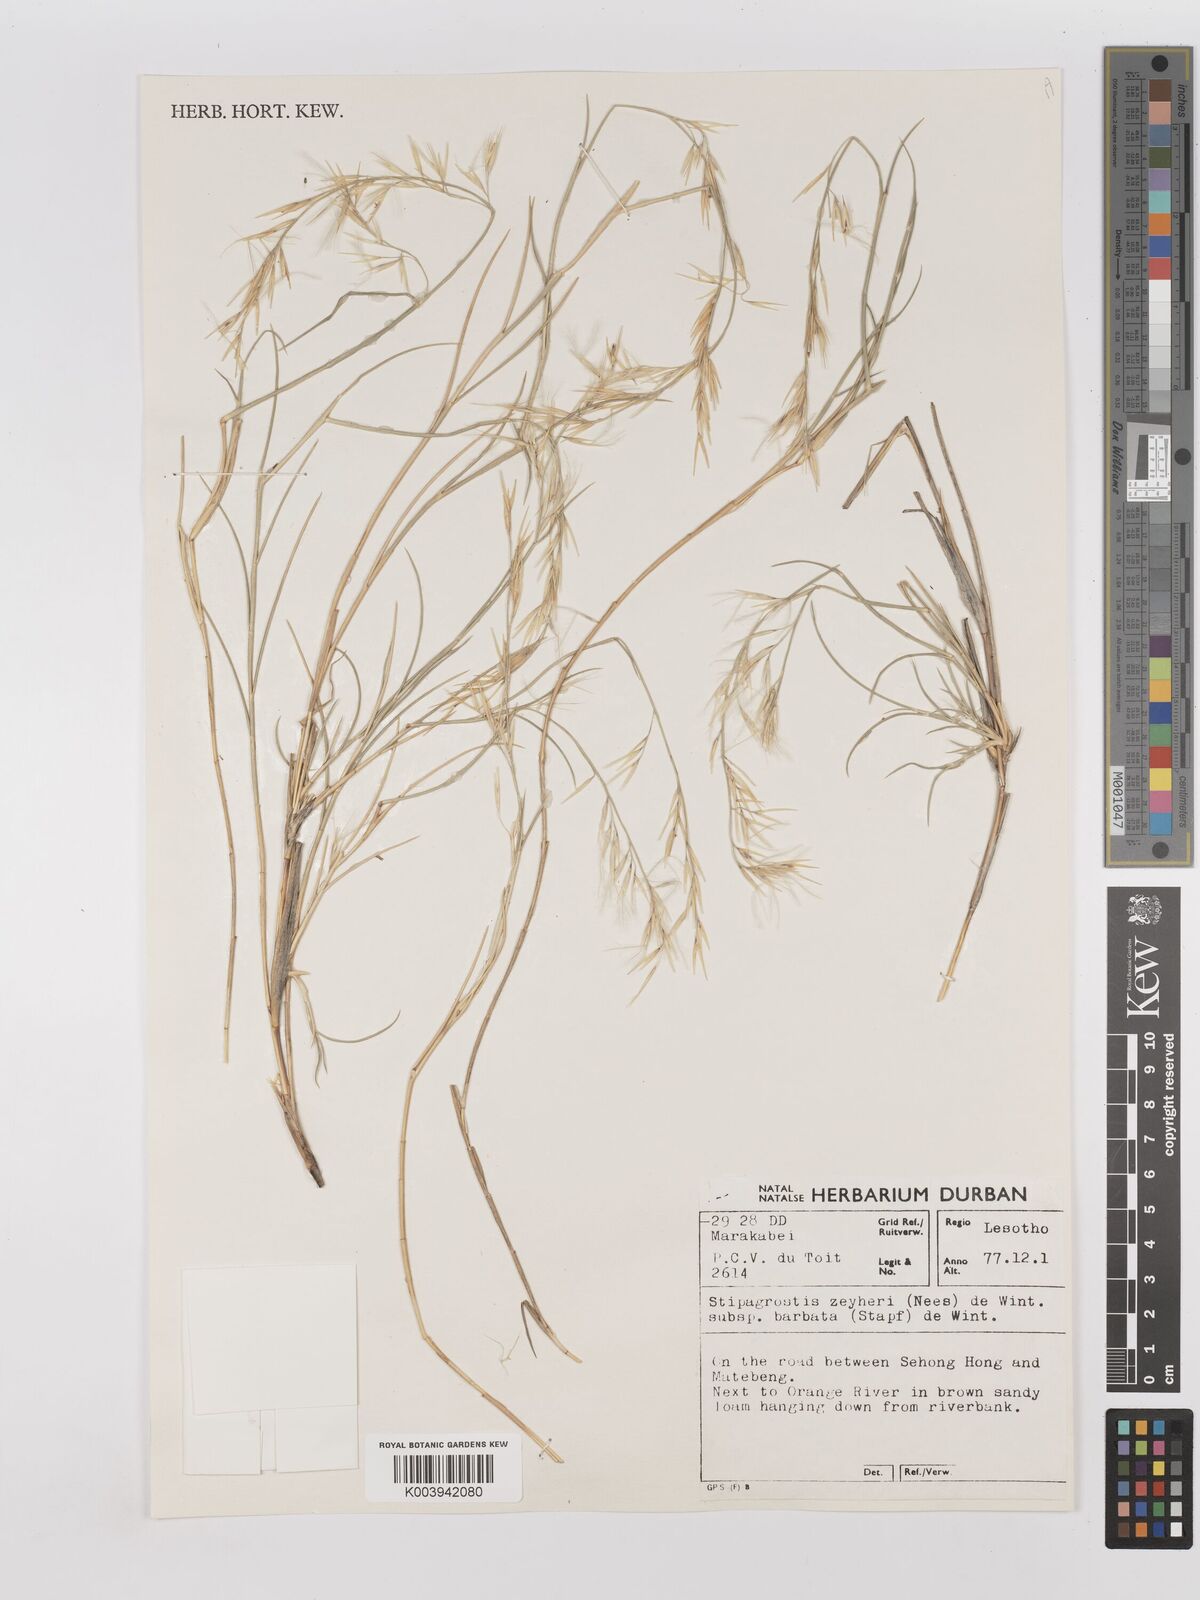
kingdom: Plantae
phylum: Tracheophyta
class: Liliopsida
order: Poales
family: Poaceae
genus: Stipagrostis
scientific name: Stipagrostis zeyheri
